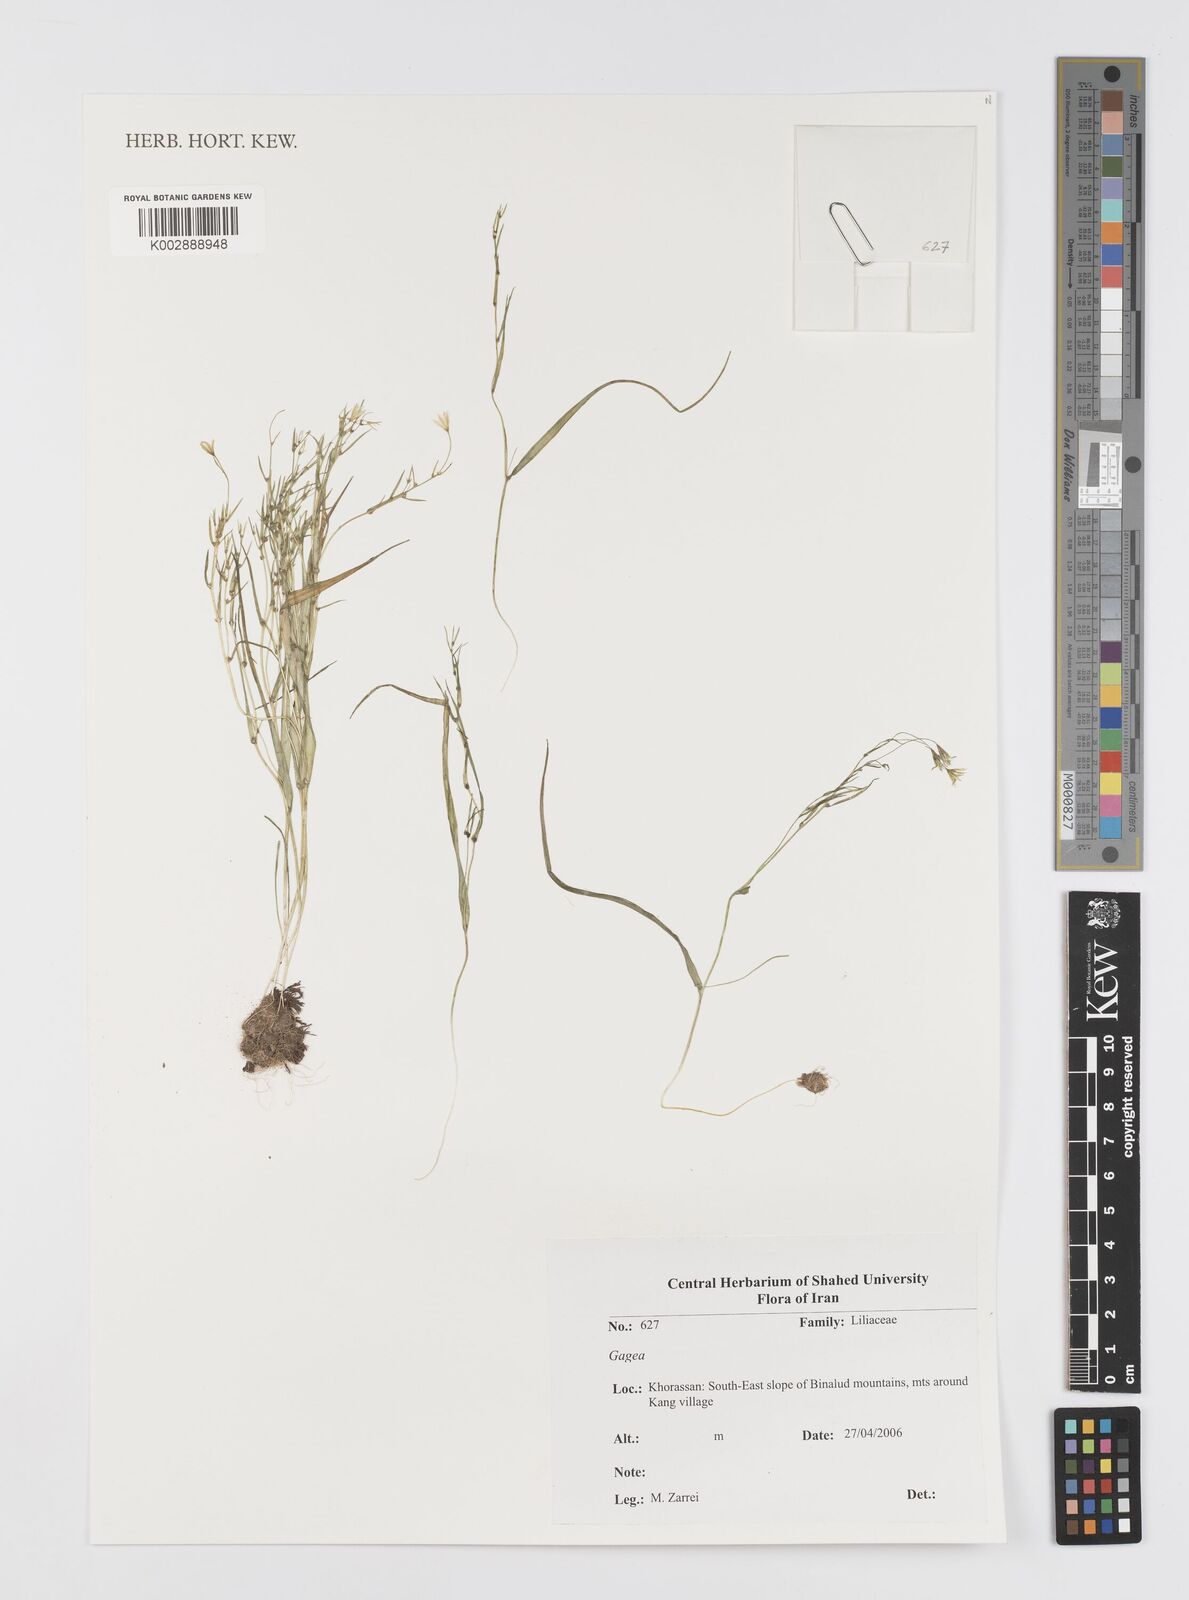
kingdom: Plantae
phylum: Tracheophyta
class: Liliopsida
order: Liliales
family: Liliaceae
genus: Gagea
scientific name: Gagea
